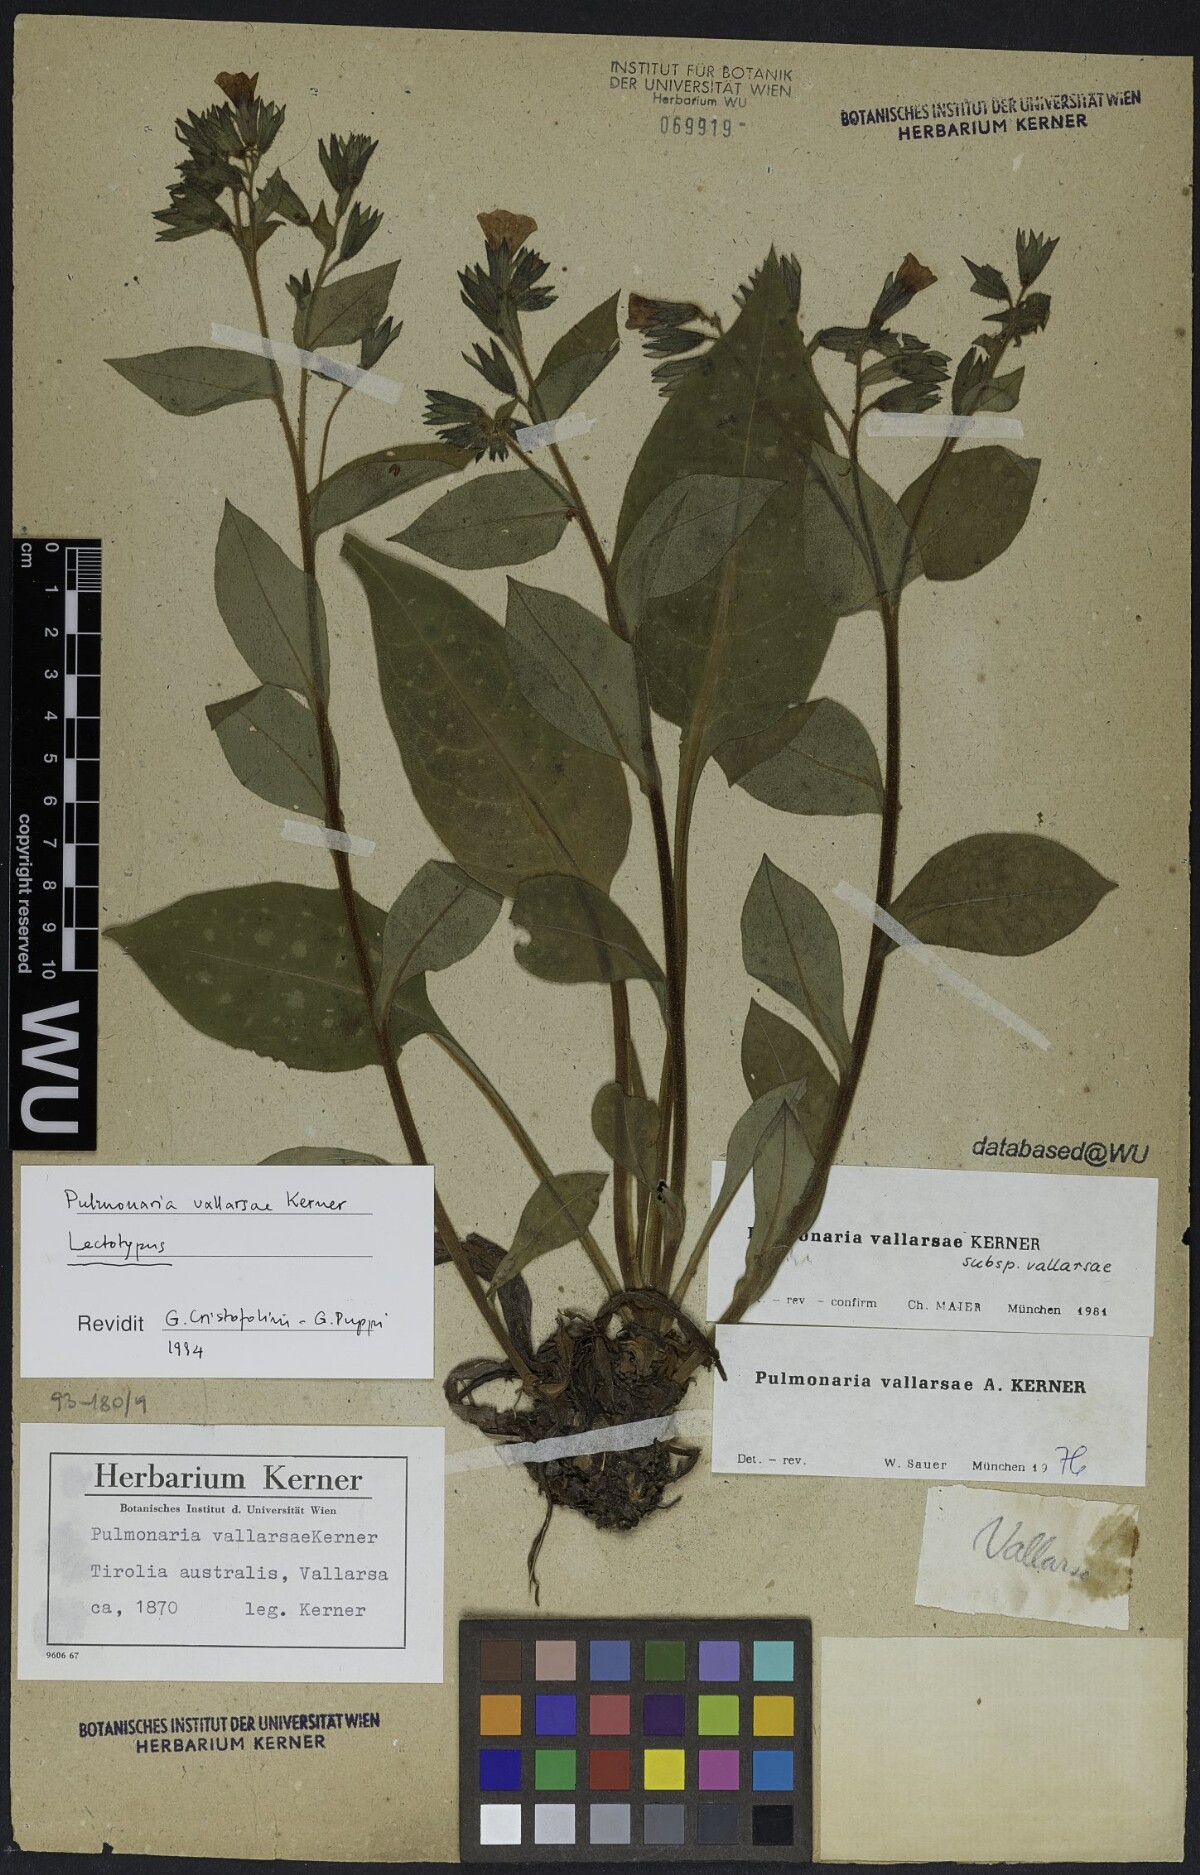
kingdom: Plantae
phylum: Tracheophyta
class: Magnoliopsida
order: Boraginales
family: Boraginaceae
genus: Pulmonaria
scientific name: Pulmonaria hirta
